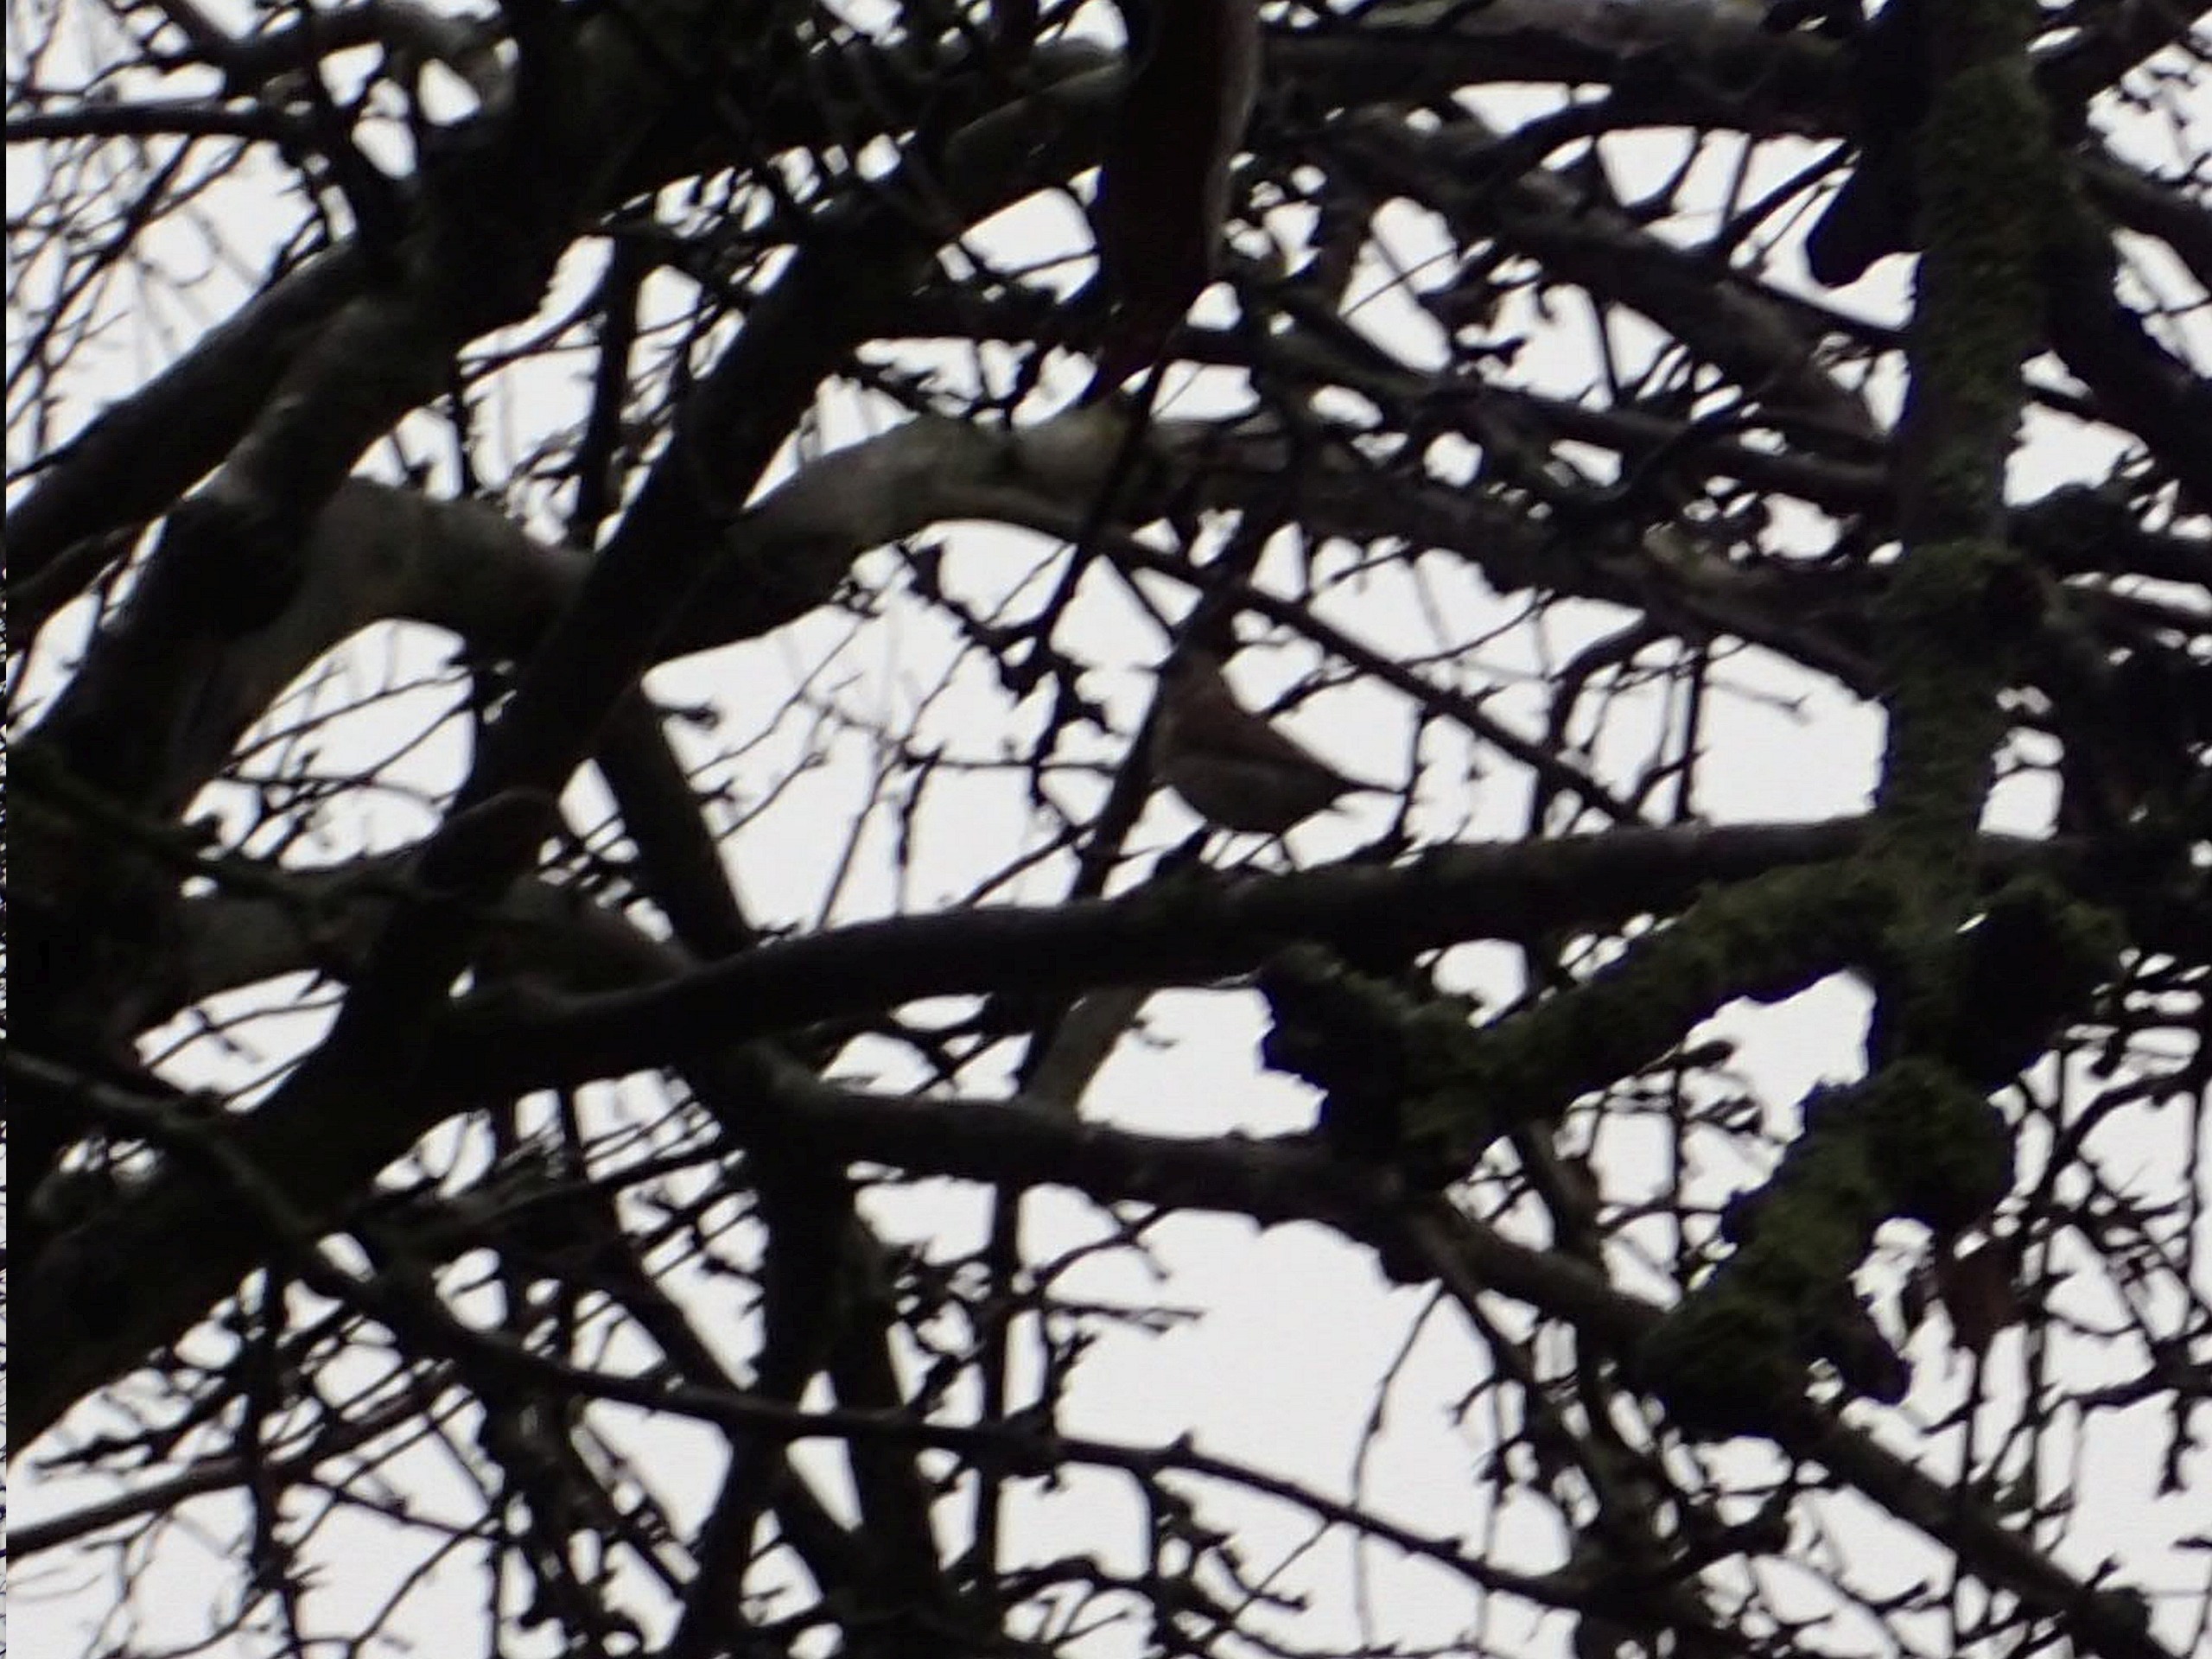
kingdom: Animalia
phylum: Chordata
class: Aves
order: Passeriformes
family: Turdidae
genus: Turdus
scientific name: Turdus pilaris
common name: Sjagger
